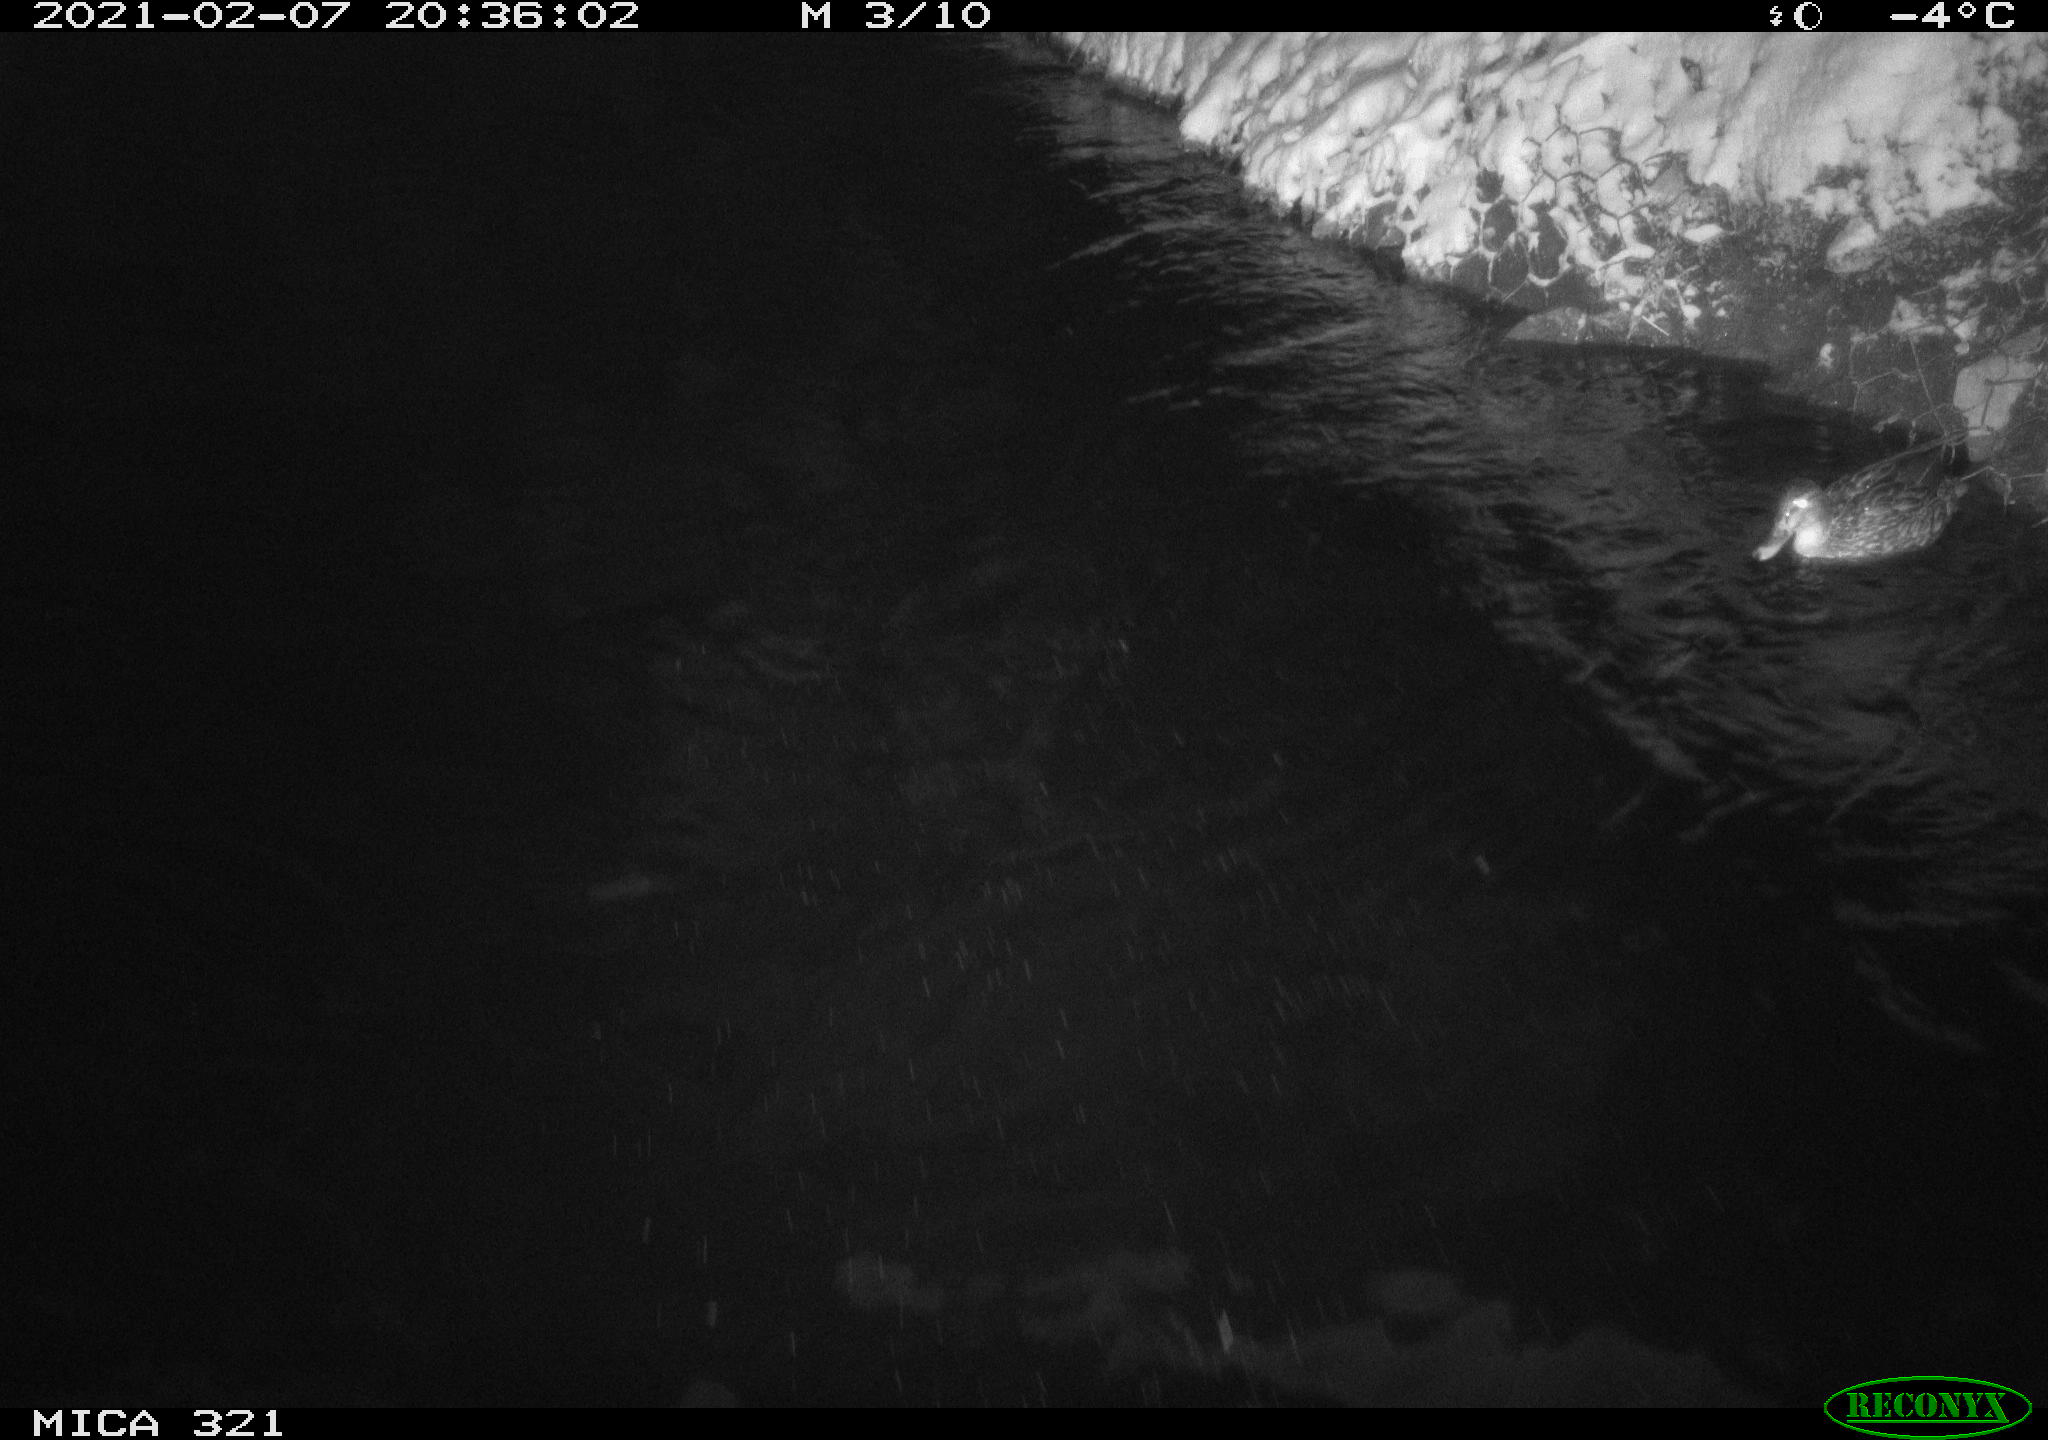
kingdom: Animalia
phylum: Chordata
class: Aves
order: Anseriformes
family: Anatidae
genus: Anas
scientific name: Anas platyrhynchos
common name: Mallard
